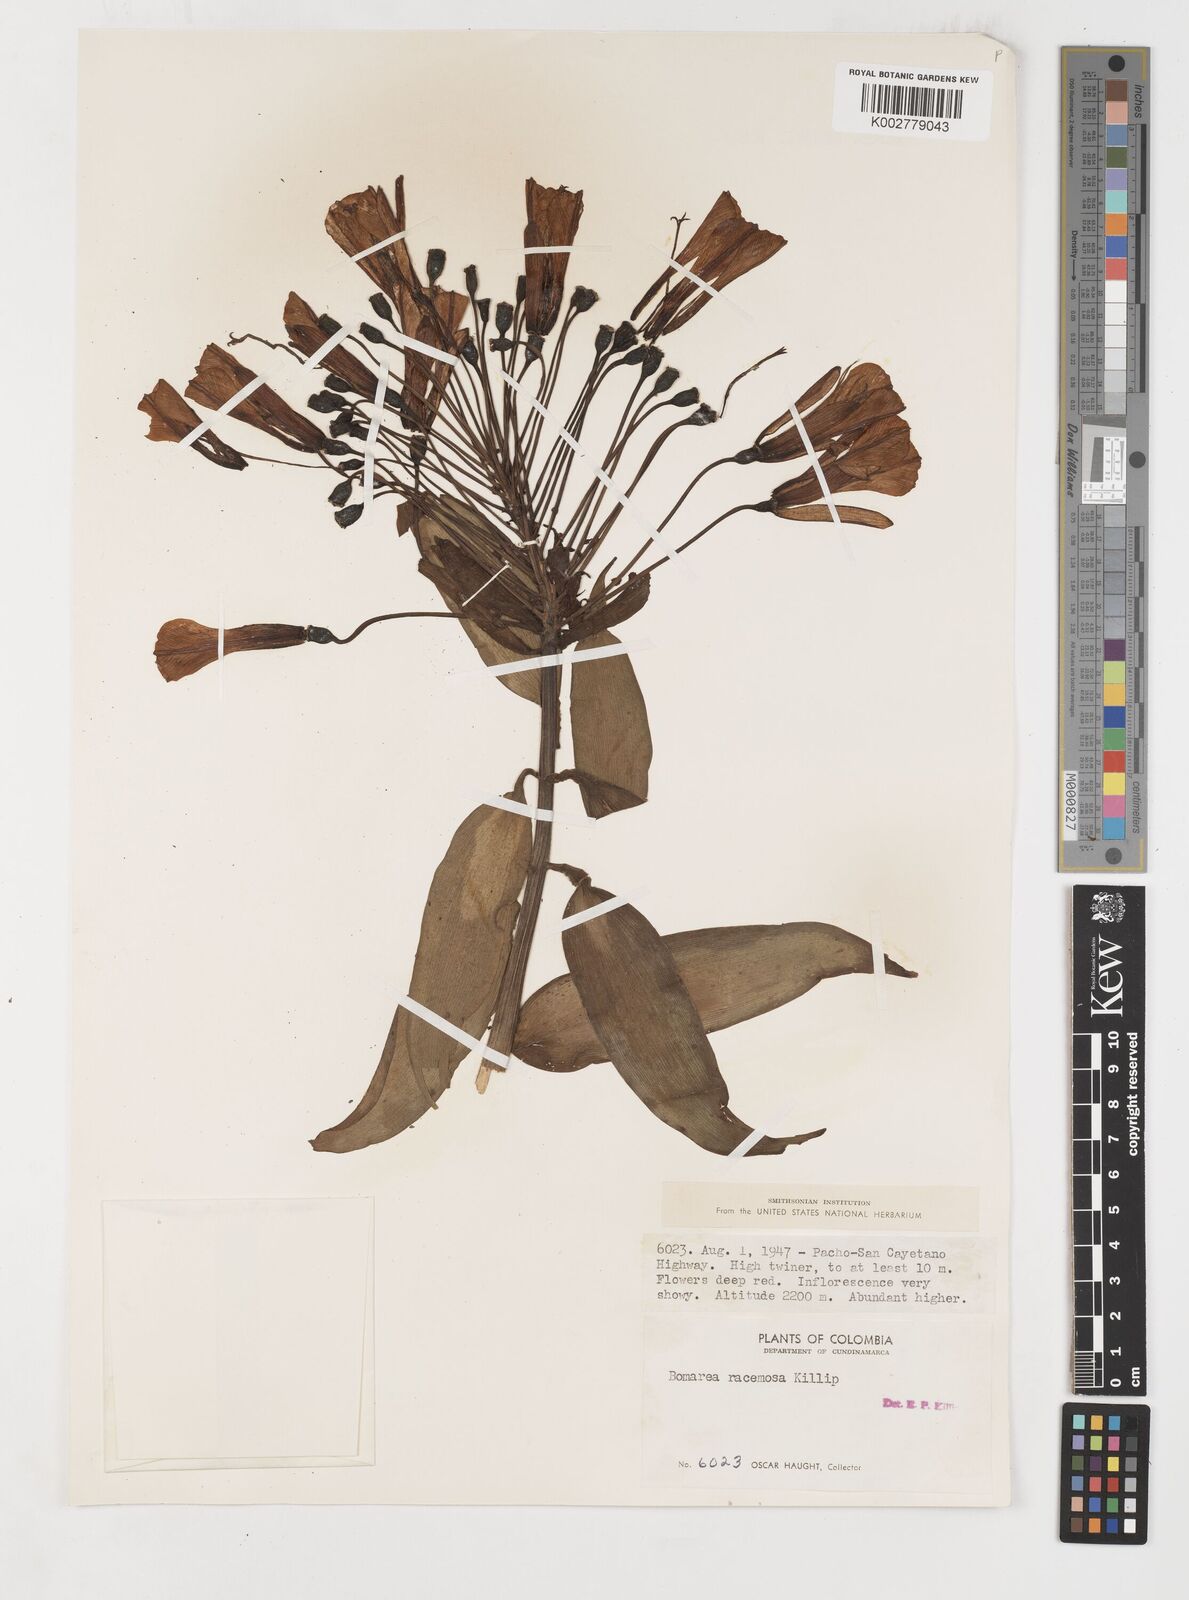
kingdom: Plantae
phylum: Tracheophyta
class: Liliopsida
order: Liliales
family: Alstroemeriaceae
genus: Bomarea
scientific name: Bomarea patinii
